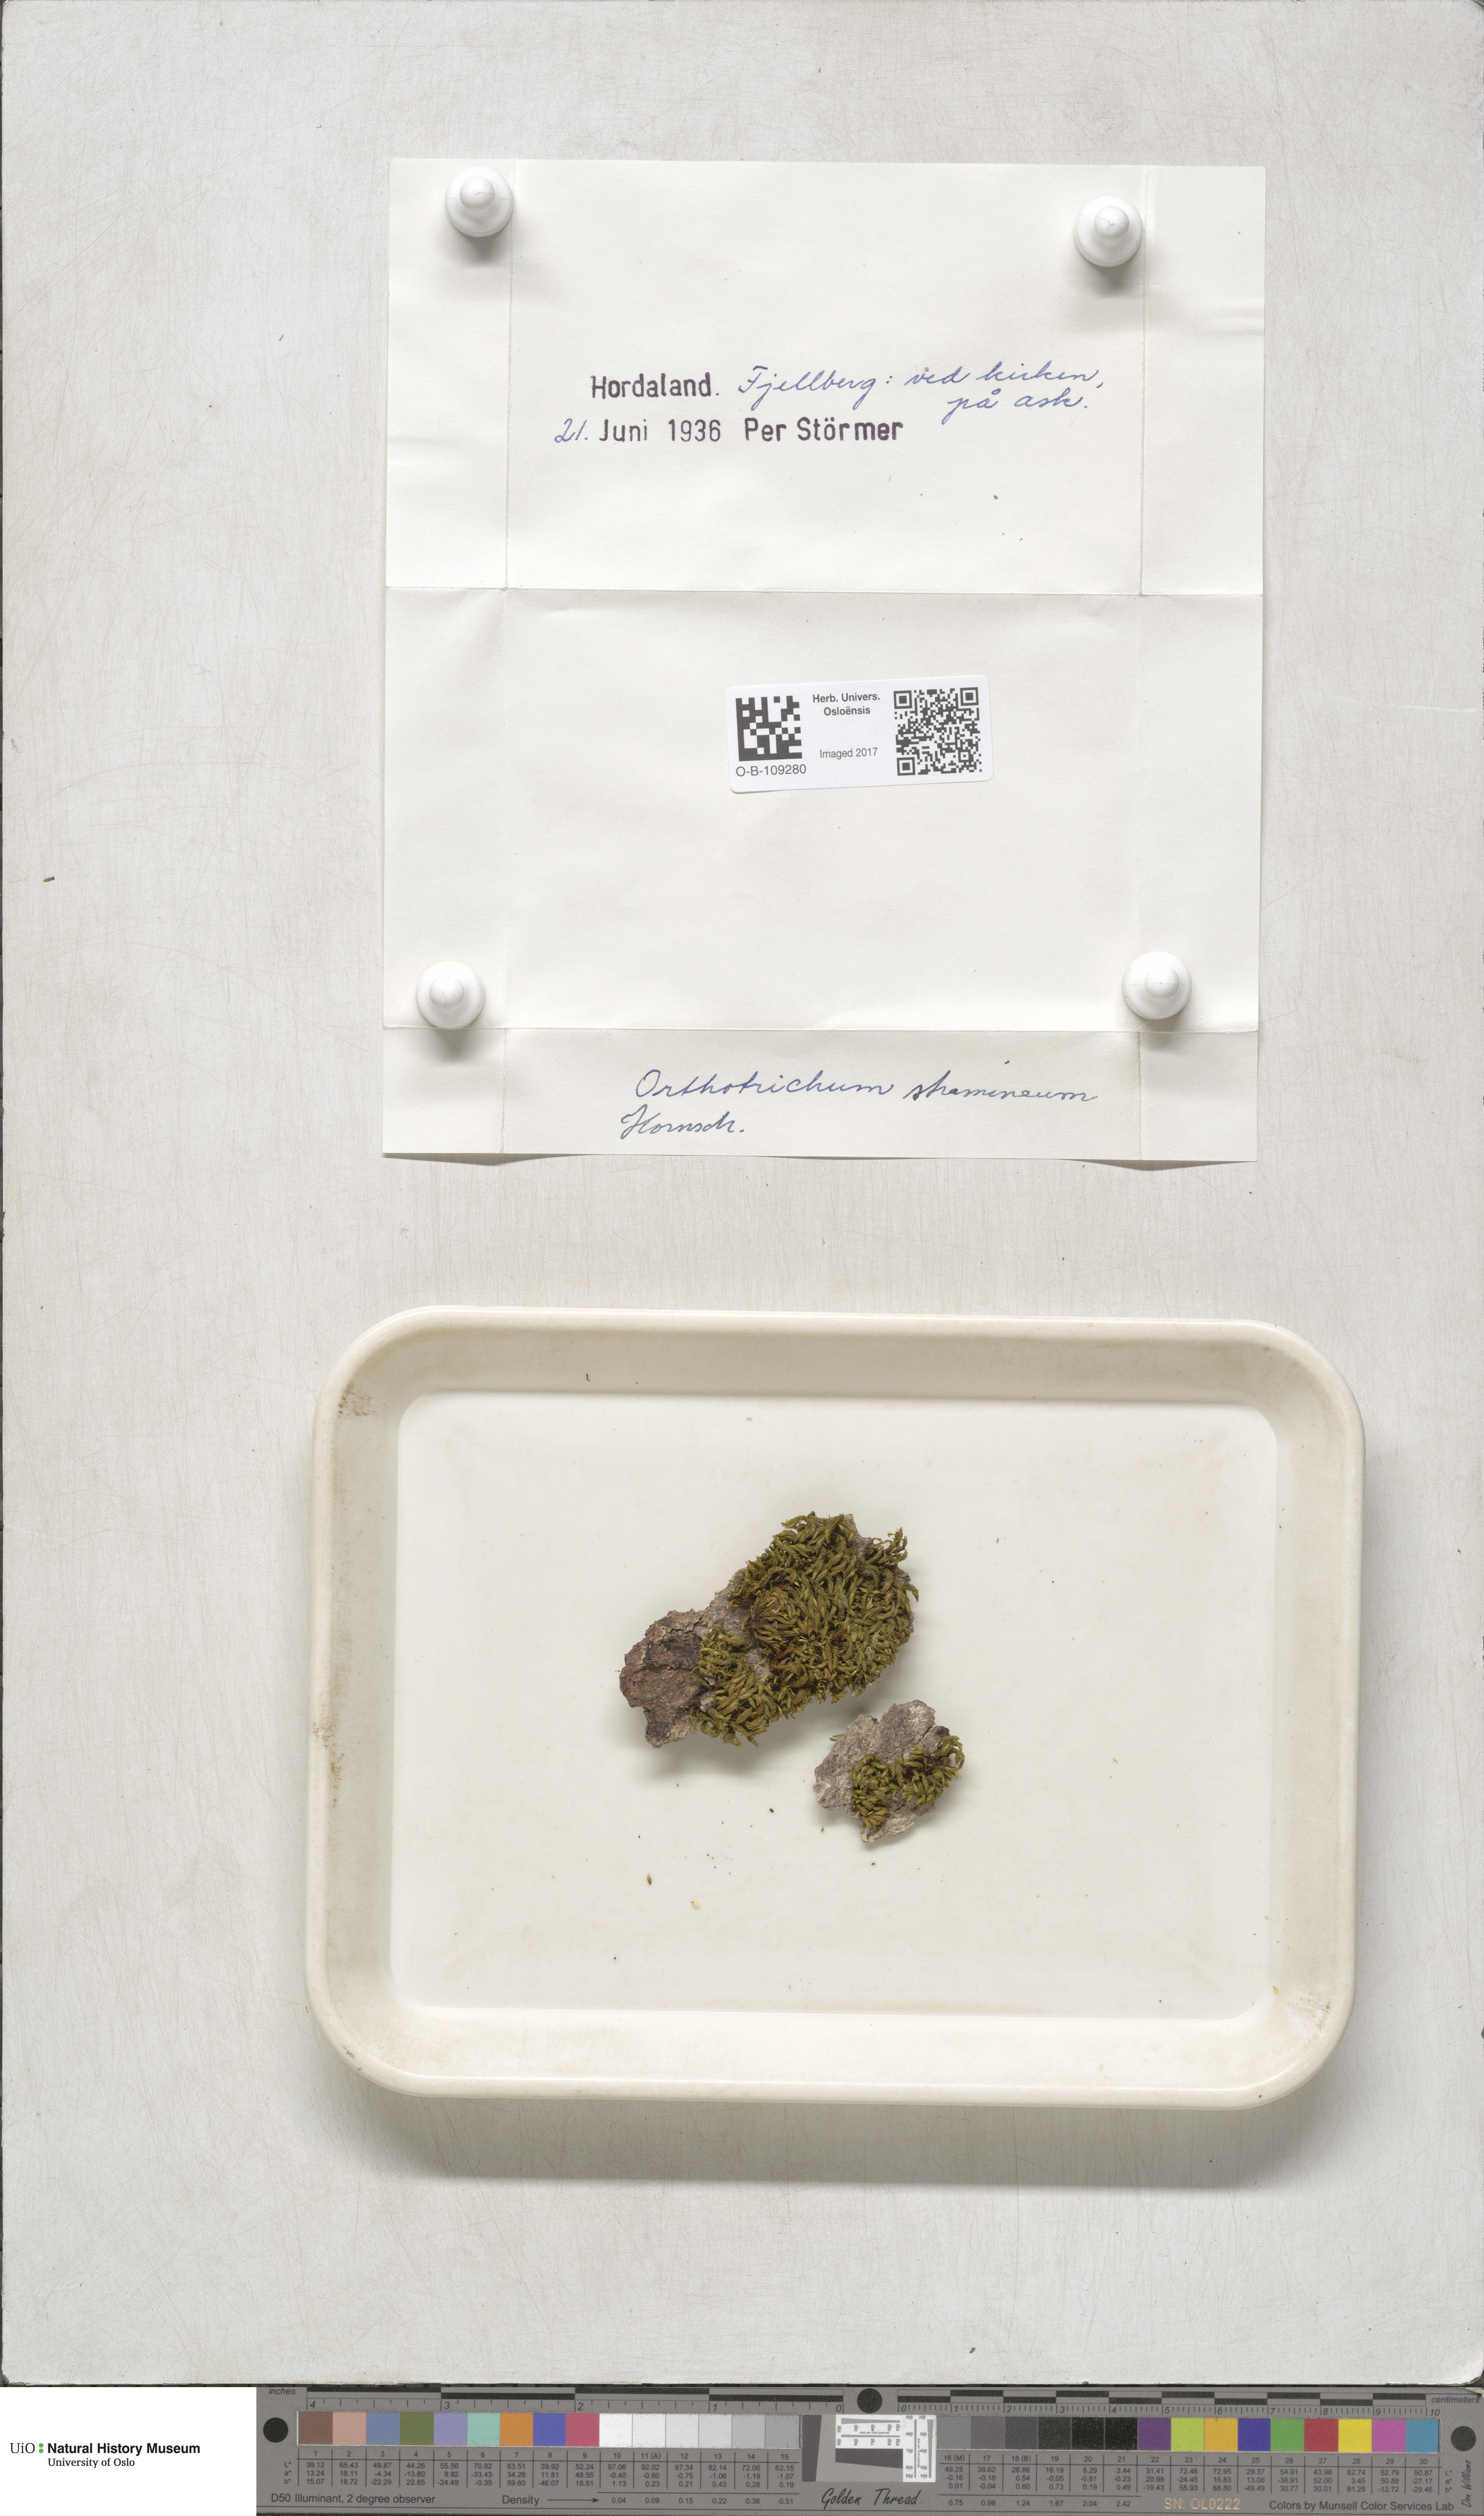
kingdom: Plantae
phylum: Bryophyta
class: Bryopsida
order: Orthotrichales
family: Orthotrichaceae
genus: Orthotrichum
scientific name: Orthotrichum stramineum
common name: Straw bristle-moss
